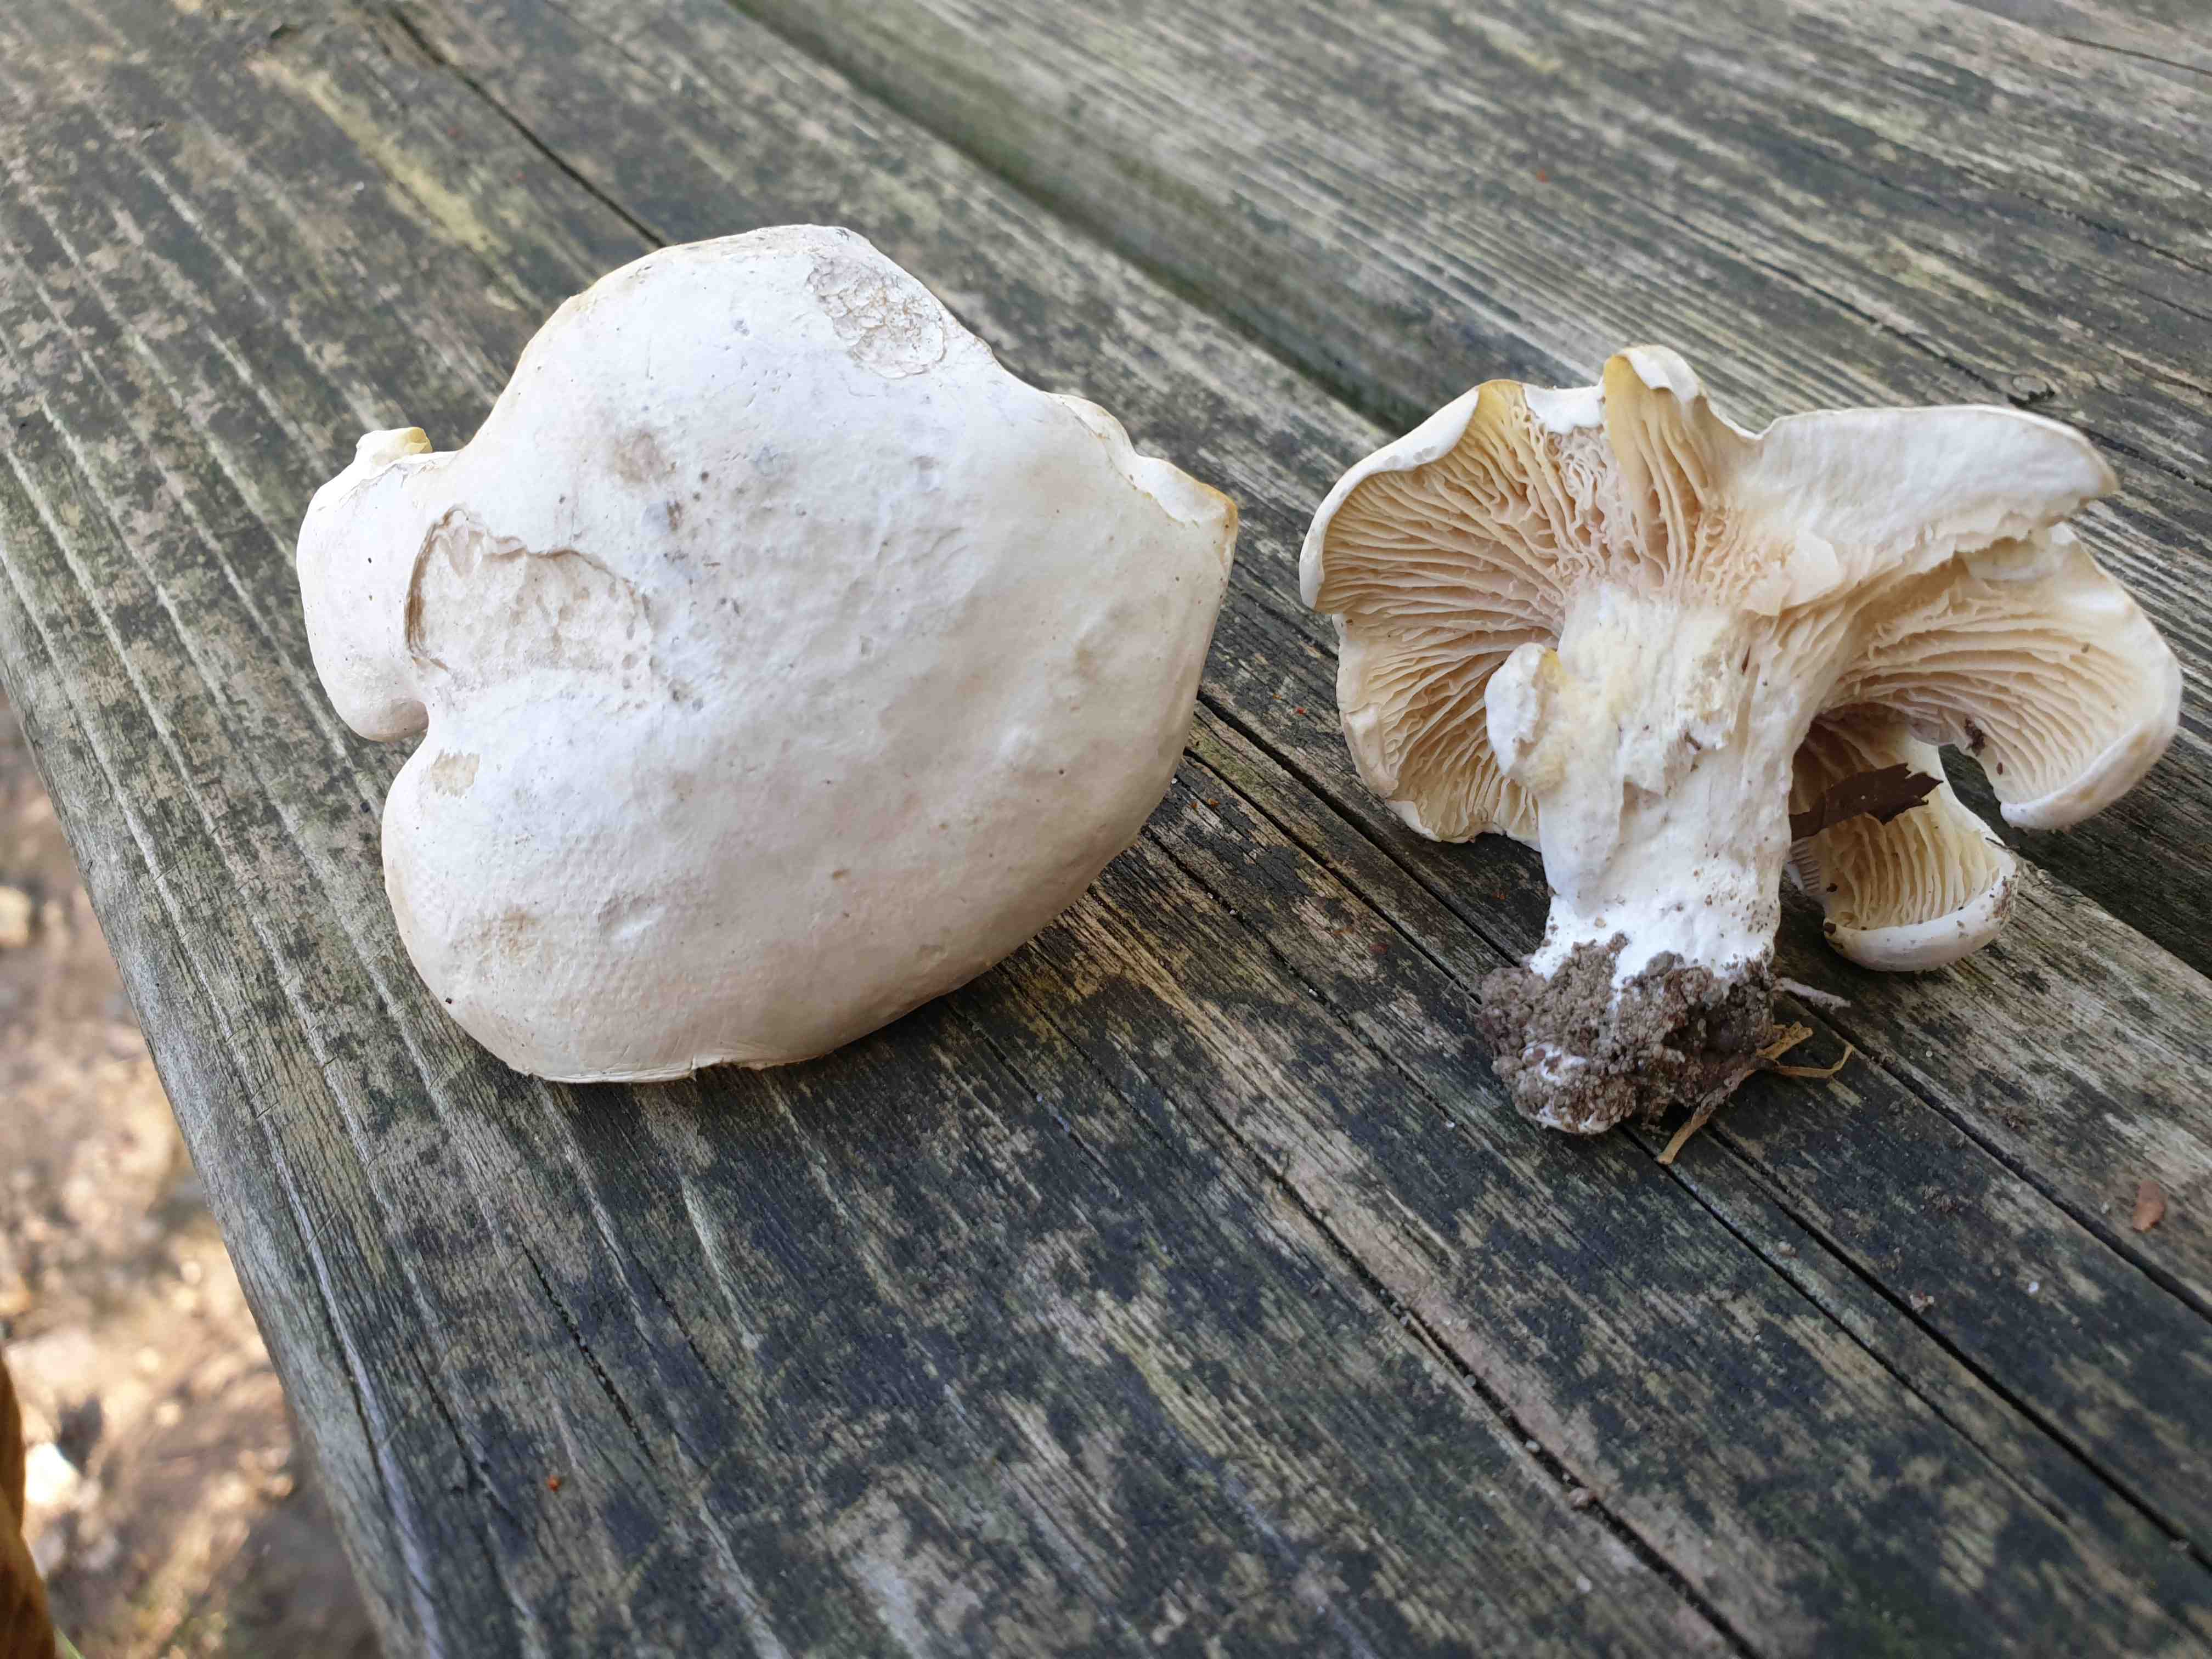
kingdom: Fungi
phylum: Basidiomycota
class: Agaricomycetes
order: Agaricales
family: Entolomataceae
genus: Clitopilus
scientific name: Clitopilus prunulus
